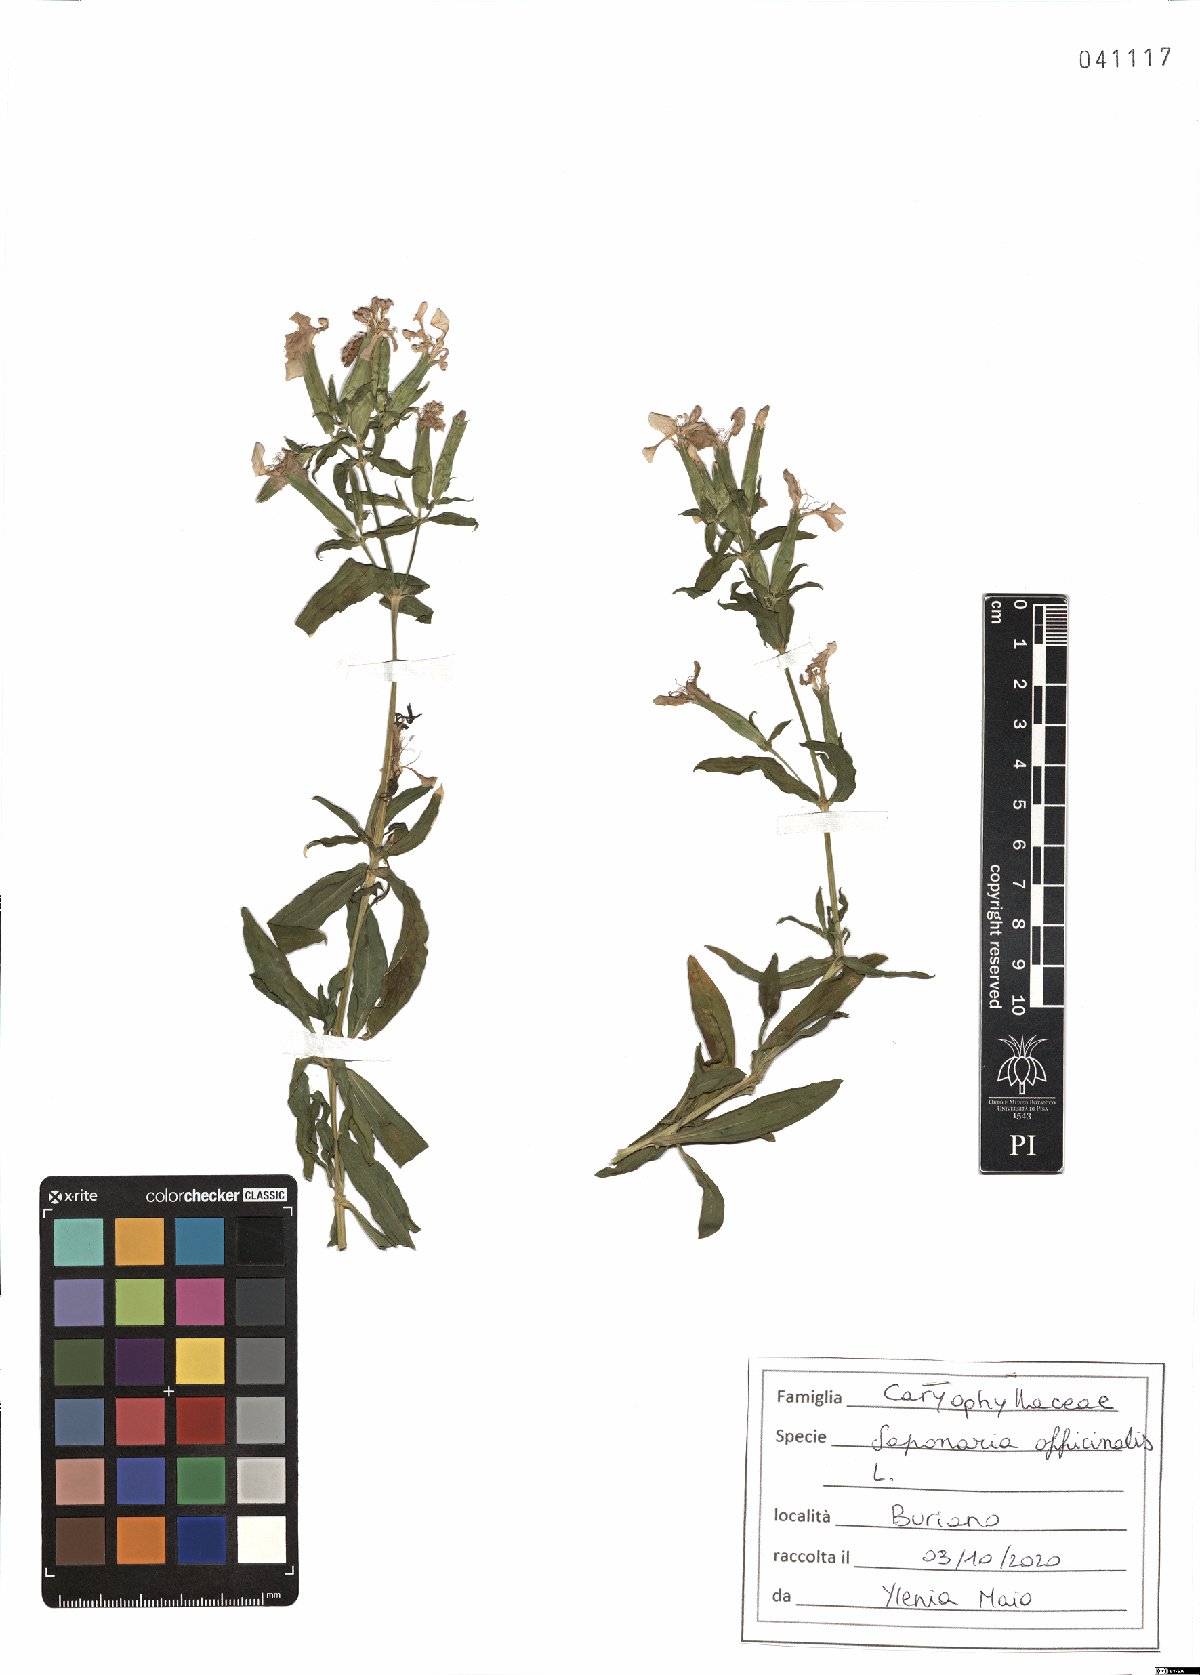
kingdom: Plantae
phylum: Tracheophyta
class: Magnoliopsida
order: Caryophyllales
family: Caryophyllaceae
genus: Saponaria
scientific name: Saponaria officinalis
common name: Soapwort
